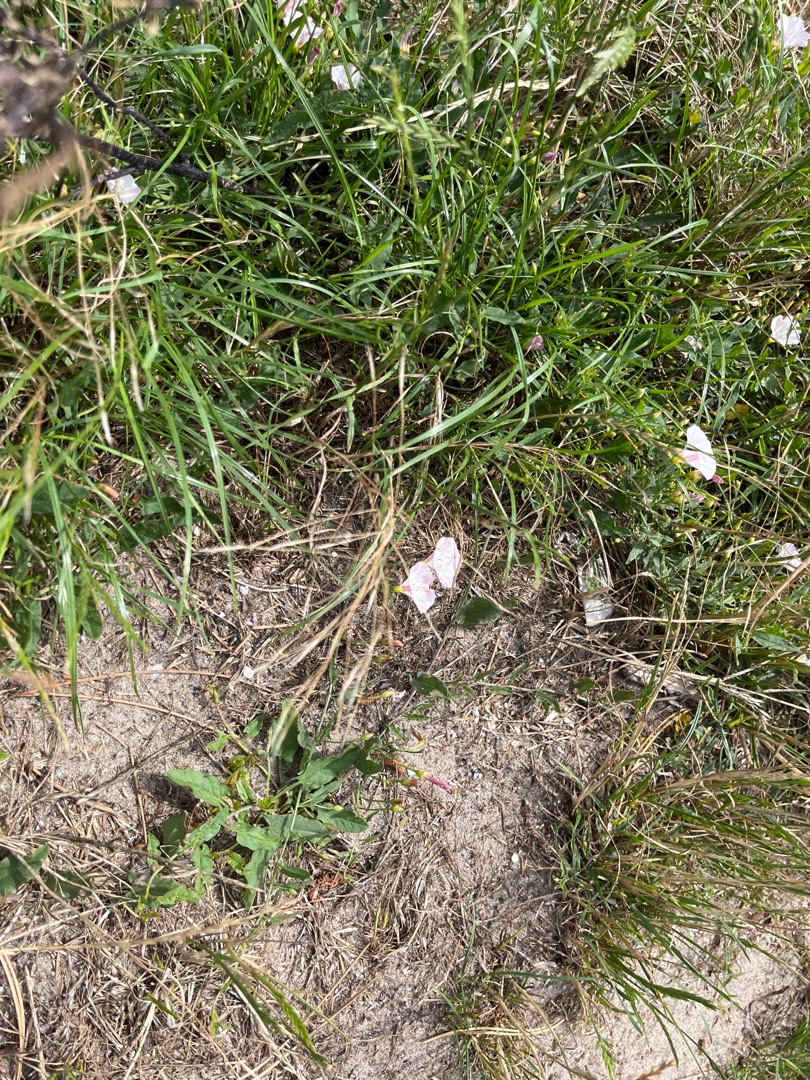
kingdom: Plantae
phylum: Tracheophyta
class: Magnoliopsida
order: Solanales
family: Convolvulaceae
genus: Convolvulus
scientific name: Convolvulus arvensis
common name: Ager-snerle
